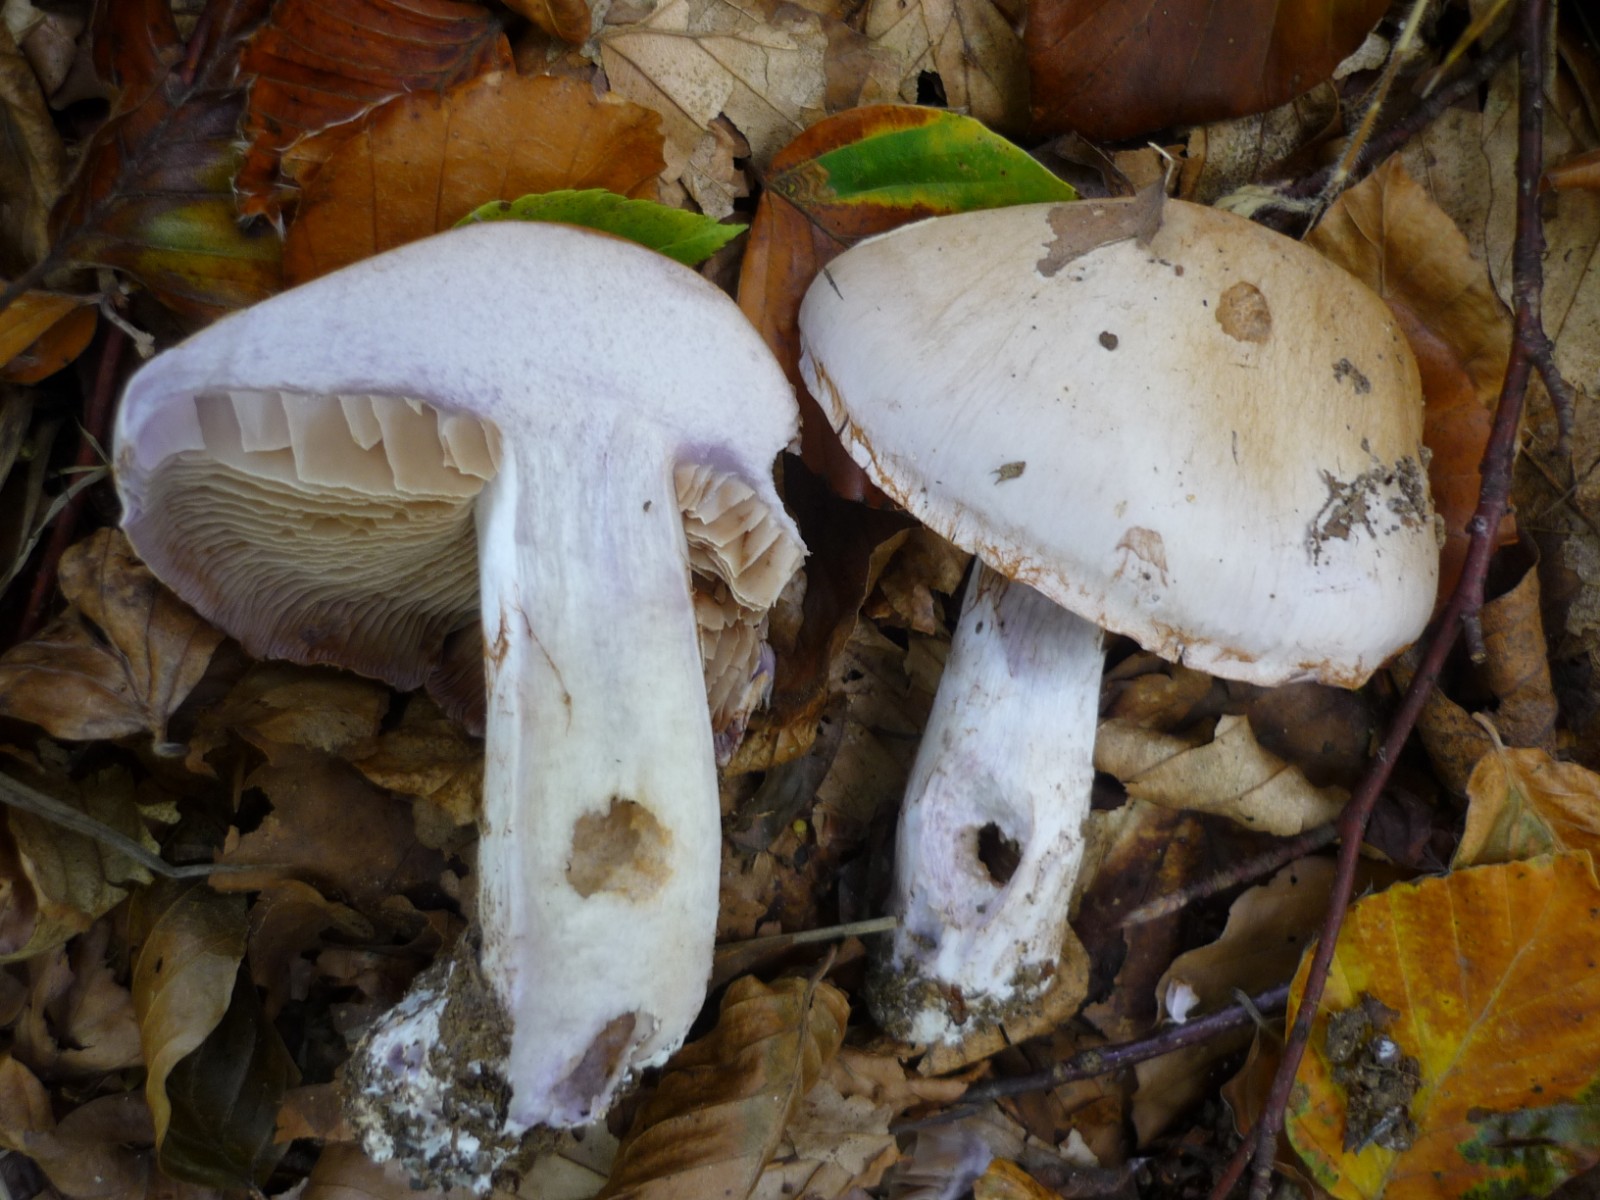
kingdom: Fungi
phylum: Basidiomycota
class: Agaricomycetes
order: Agaricales
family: Cortinariaceae
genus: Cortinarius
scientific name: Cortinarius
